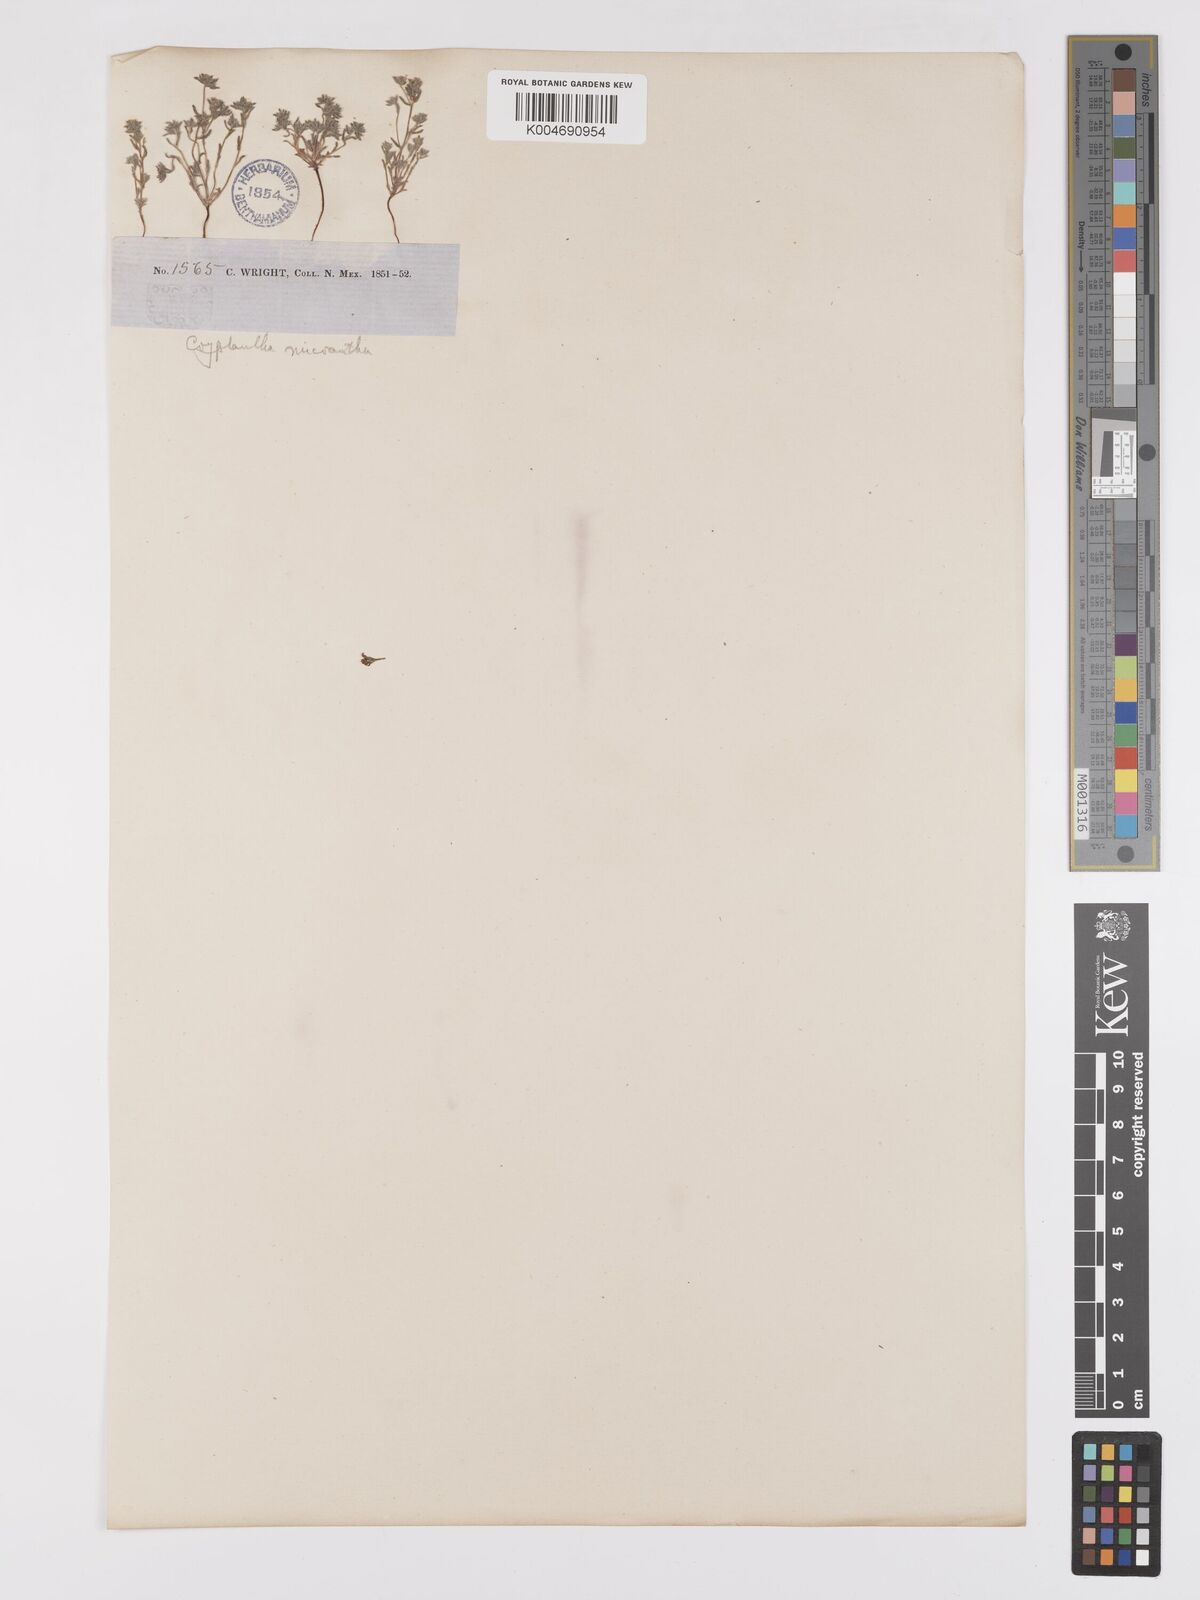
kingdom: Plantae
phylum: Tracheophyta
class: Magnoliopsida
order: Boraginales
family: Boraginaceae
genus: Eremocarya
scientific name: Eremocarya micrantha
